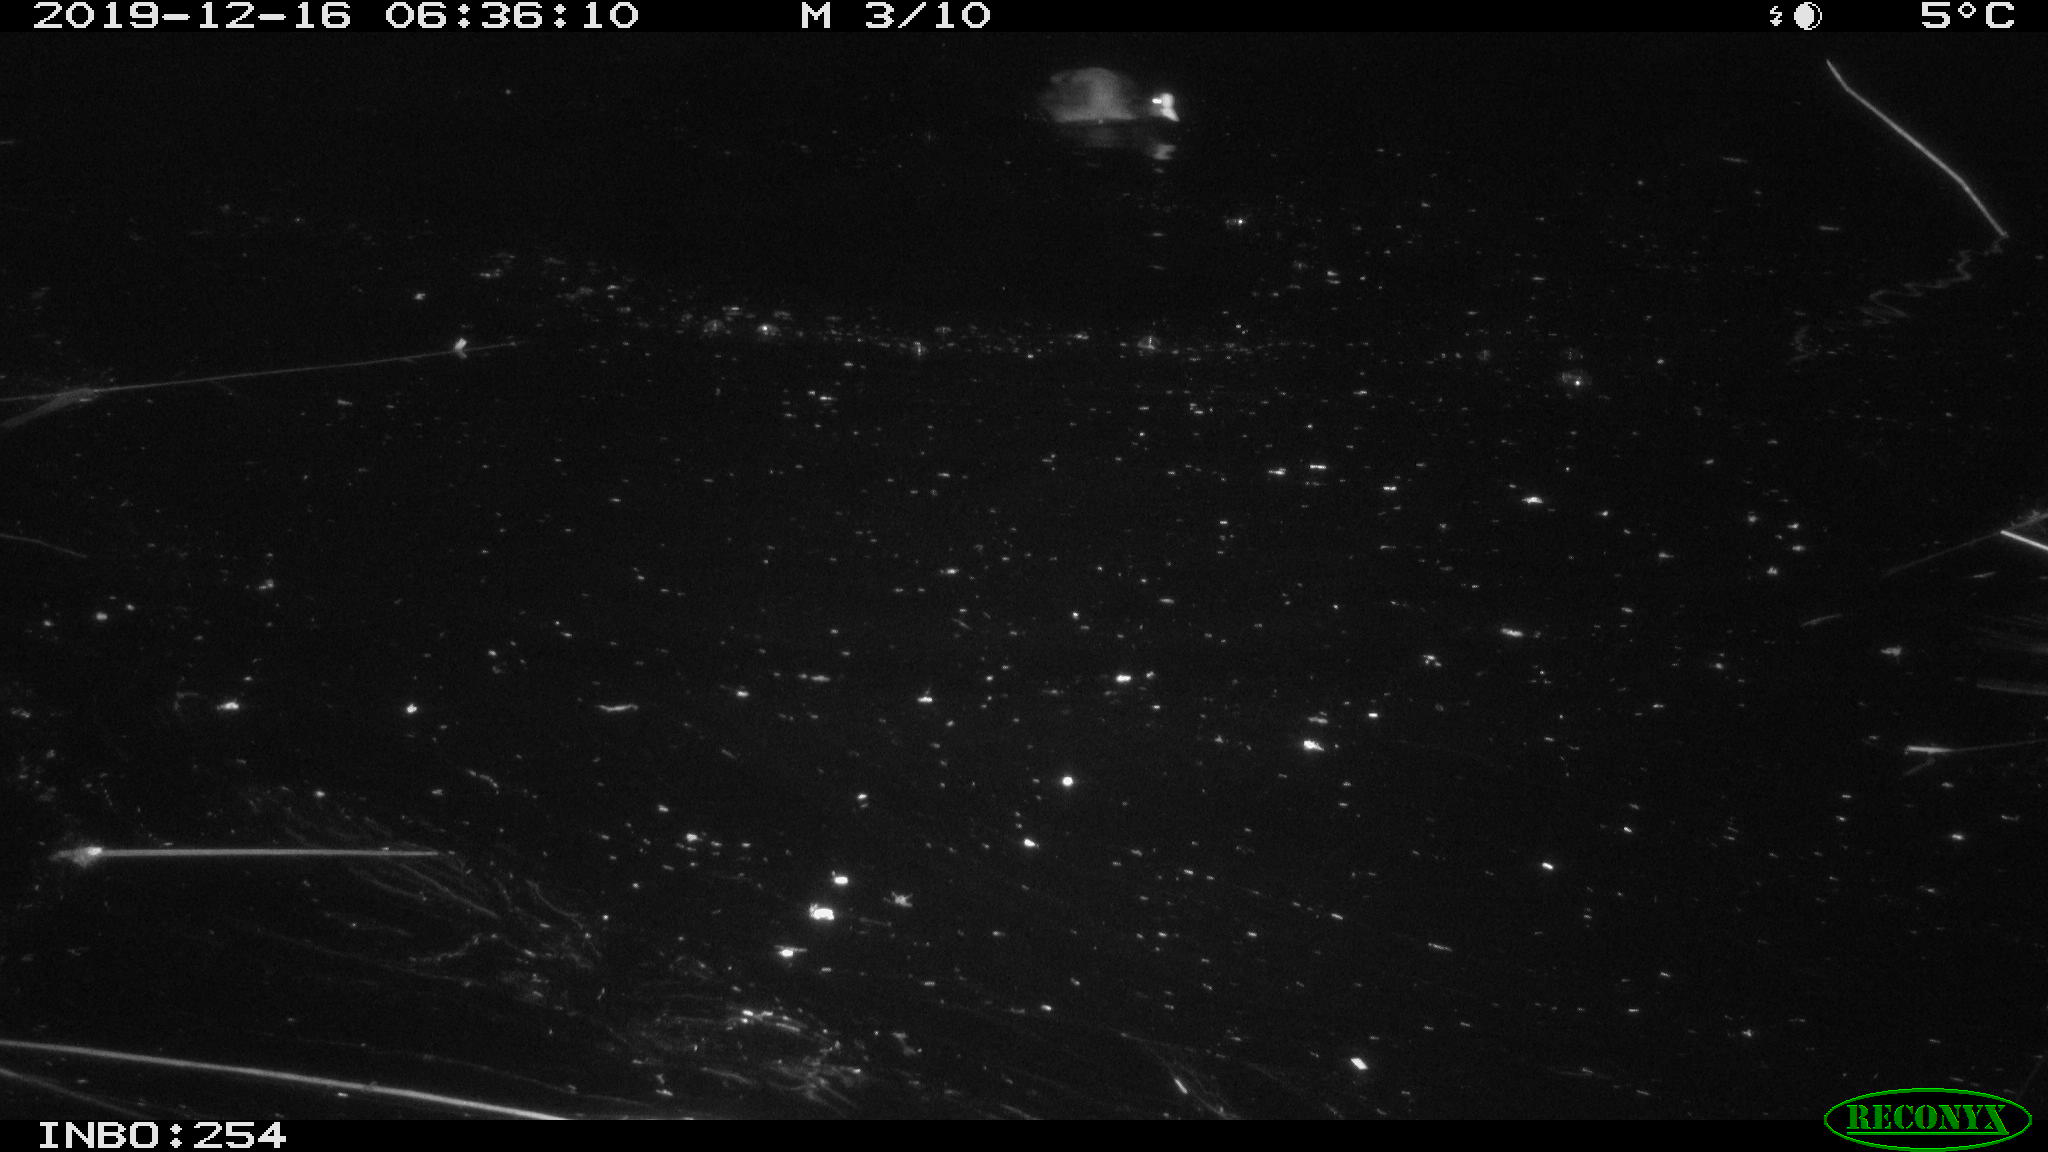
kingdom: Animalia
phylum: Chordata
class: Aves
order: Gruiformes
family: Rallidae
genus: Fulica
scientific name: Fulica atra
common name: Eurasian coot
